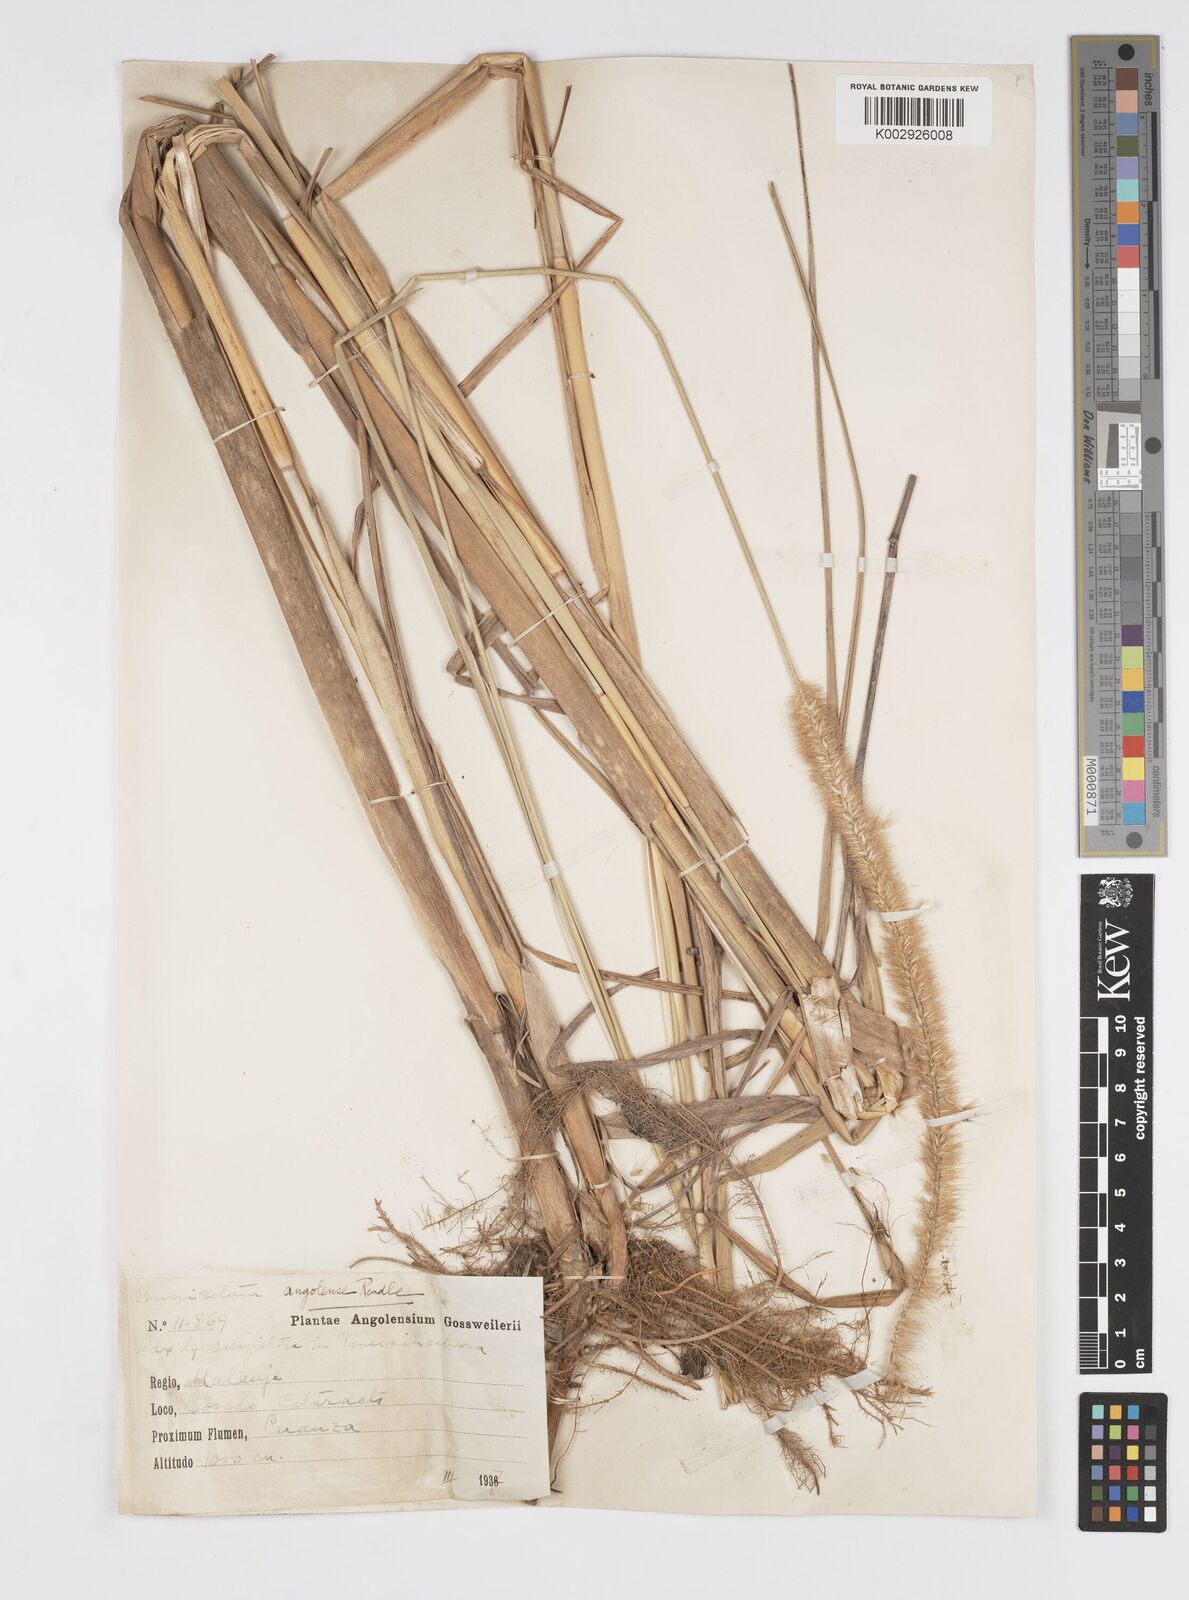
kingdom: Plantae
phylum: Tracheophyta
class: Liliopsida
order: Poales
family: Poaceae
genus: Cenchrus
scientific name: Cenchrus caudatus
